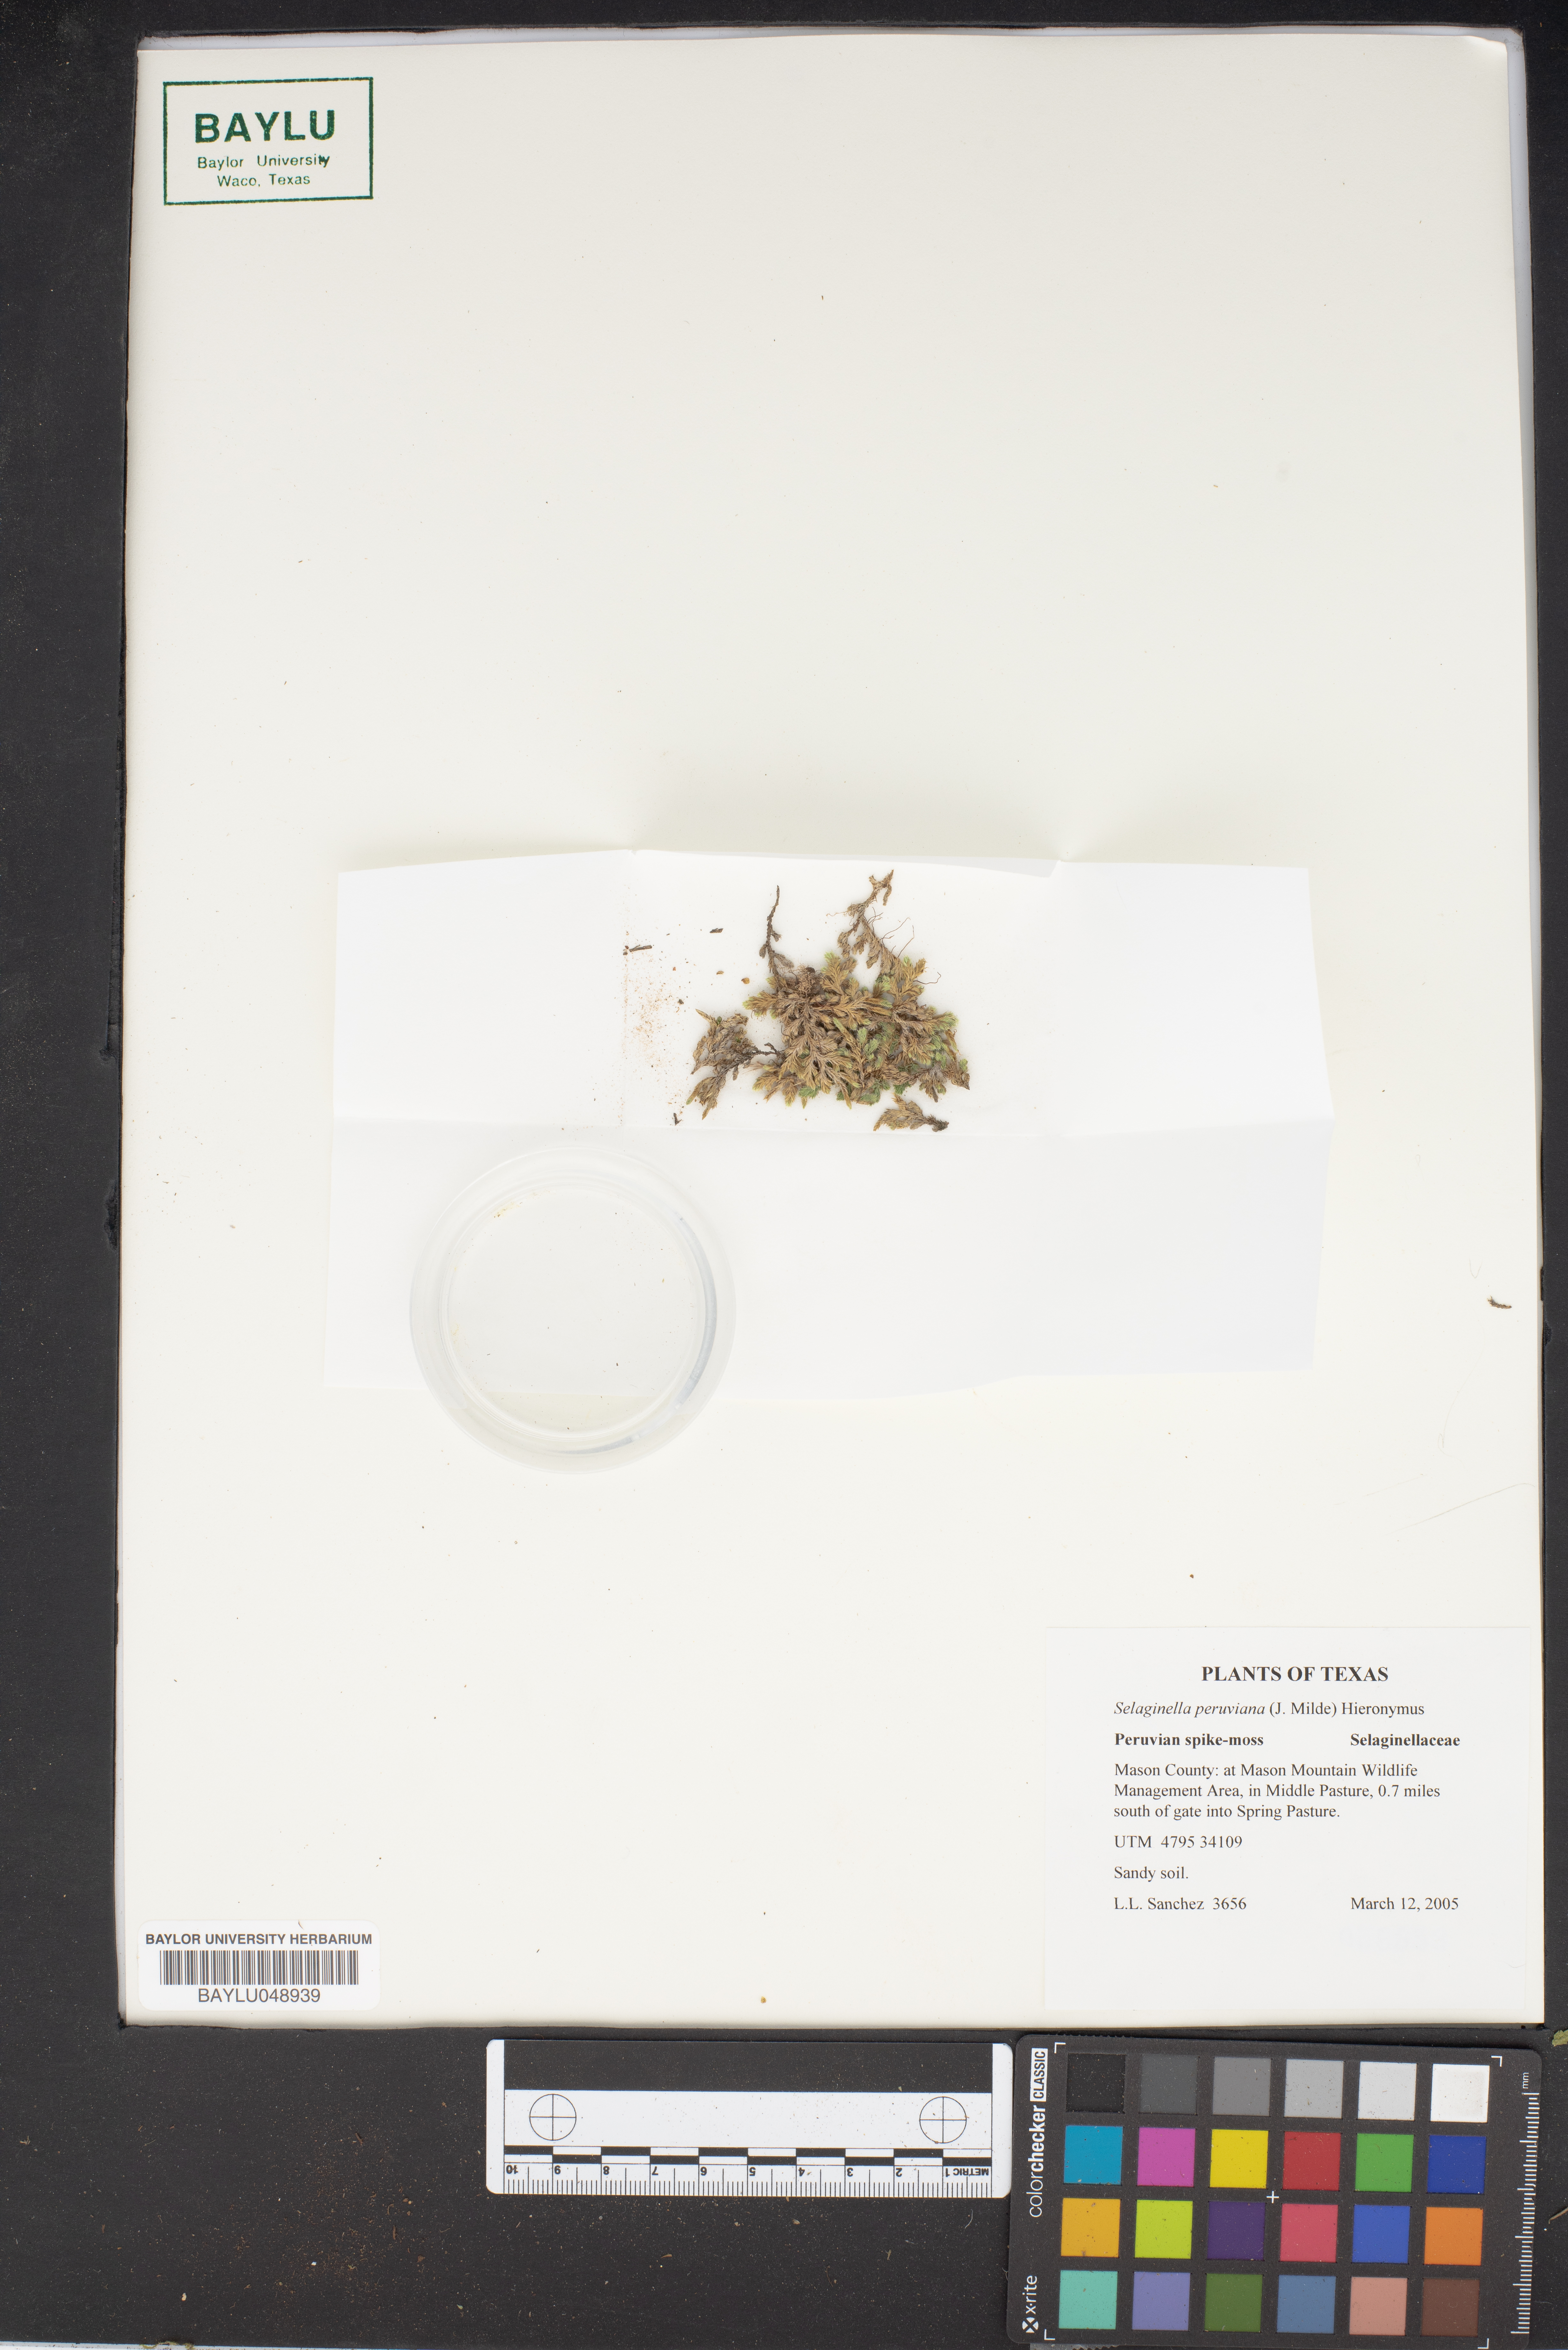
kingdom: Plantae
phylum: Tracheophyta
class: Lycopodiopsida
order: Selaginellales
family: Selaginellaceae
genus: Selaginella
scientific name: Selaginella peruviana
